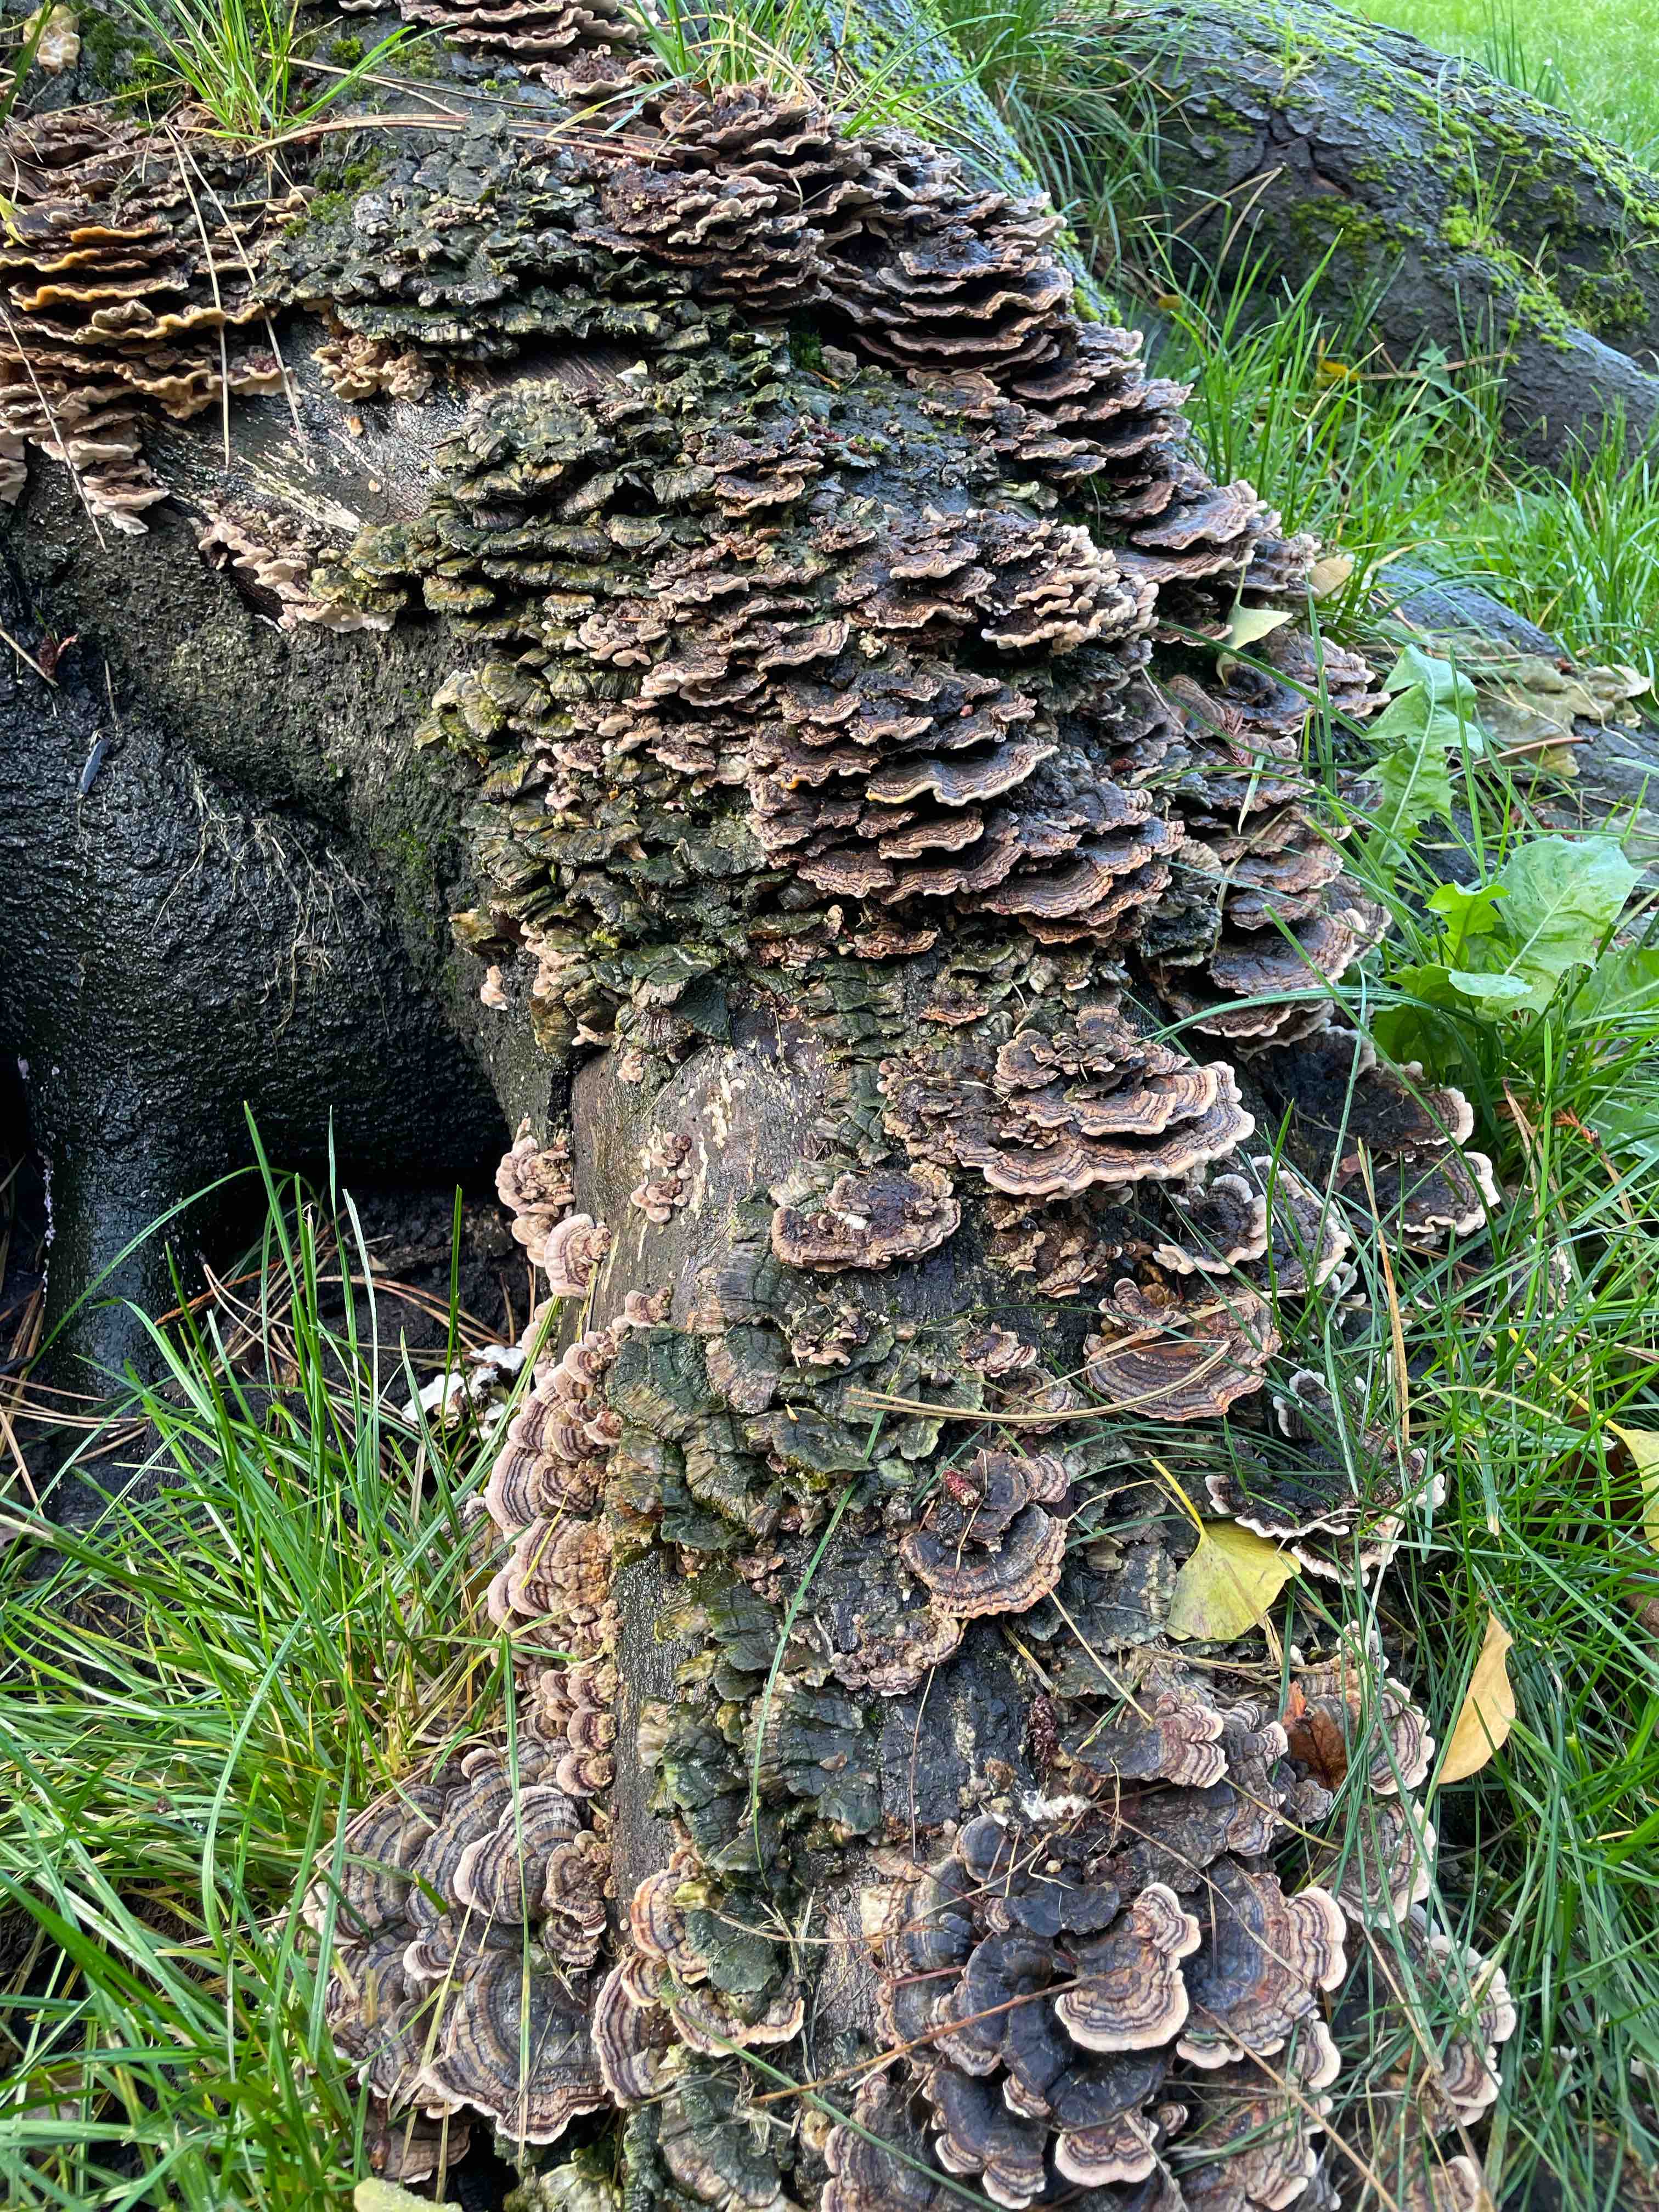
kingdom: Fungi
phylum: Basidiomycota
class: Agaricomycetes
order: Polyporales
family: Polyporaceae
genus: Trametes
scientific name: Trametes versicolor
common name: broget læderporesvamp
